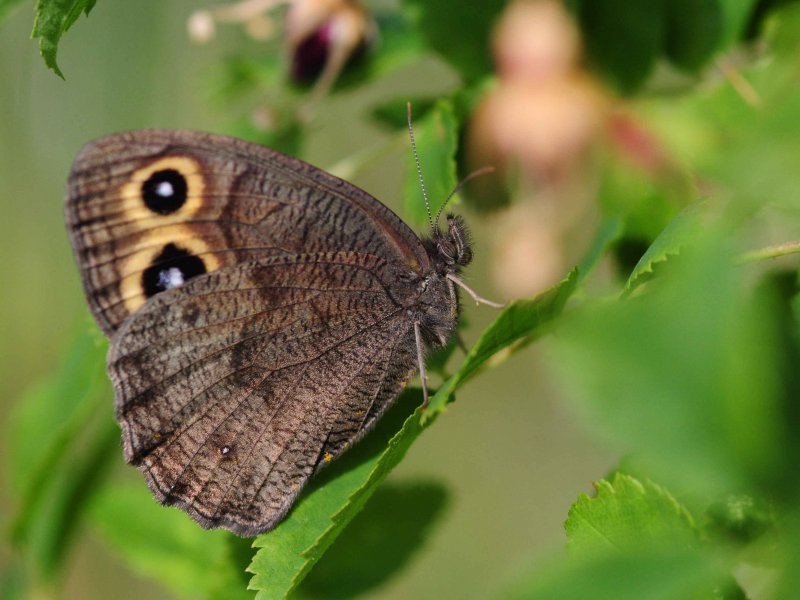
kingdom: Animalia
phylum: Arthropoda
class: Insecta
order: Lepidoptera
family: Nymphalidae
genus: Cercyonis
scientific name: Cercyonis pegala
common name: Common Wood-Nymph
